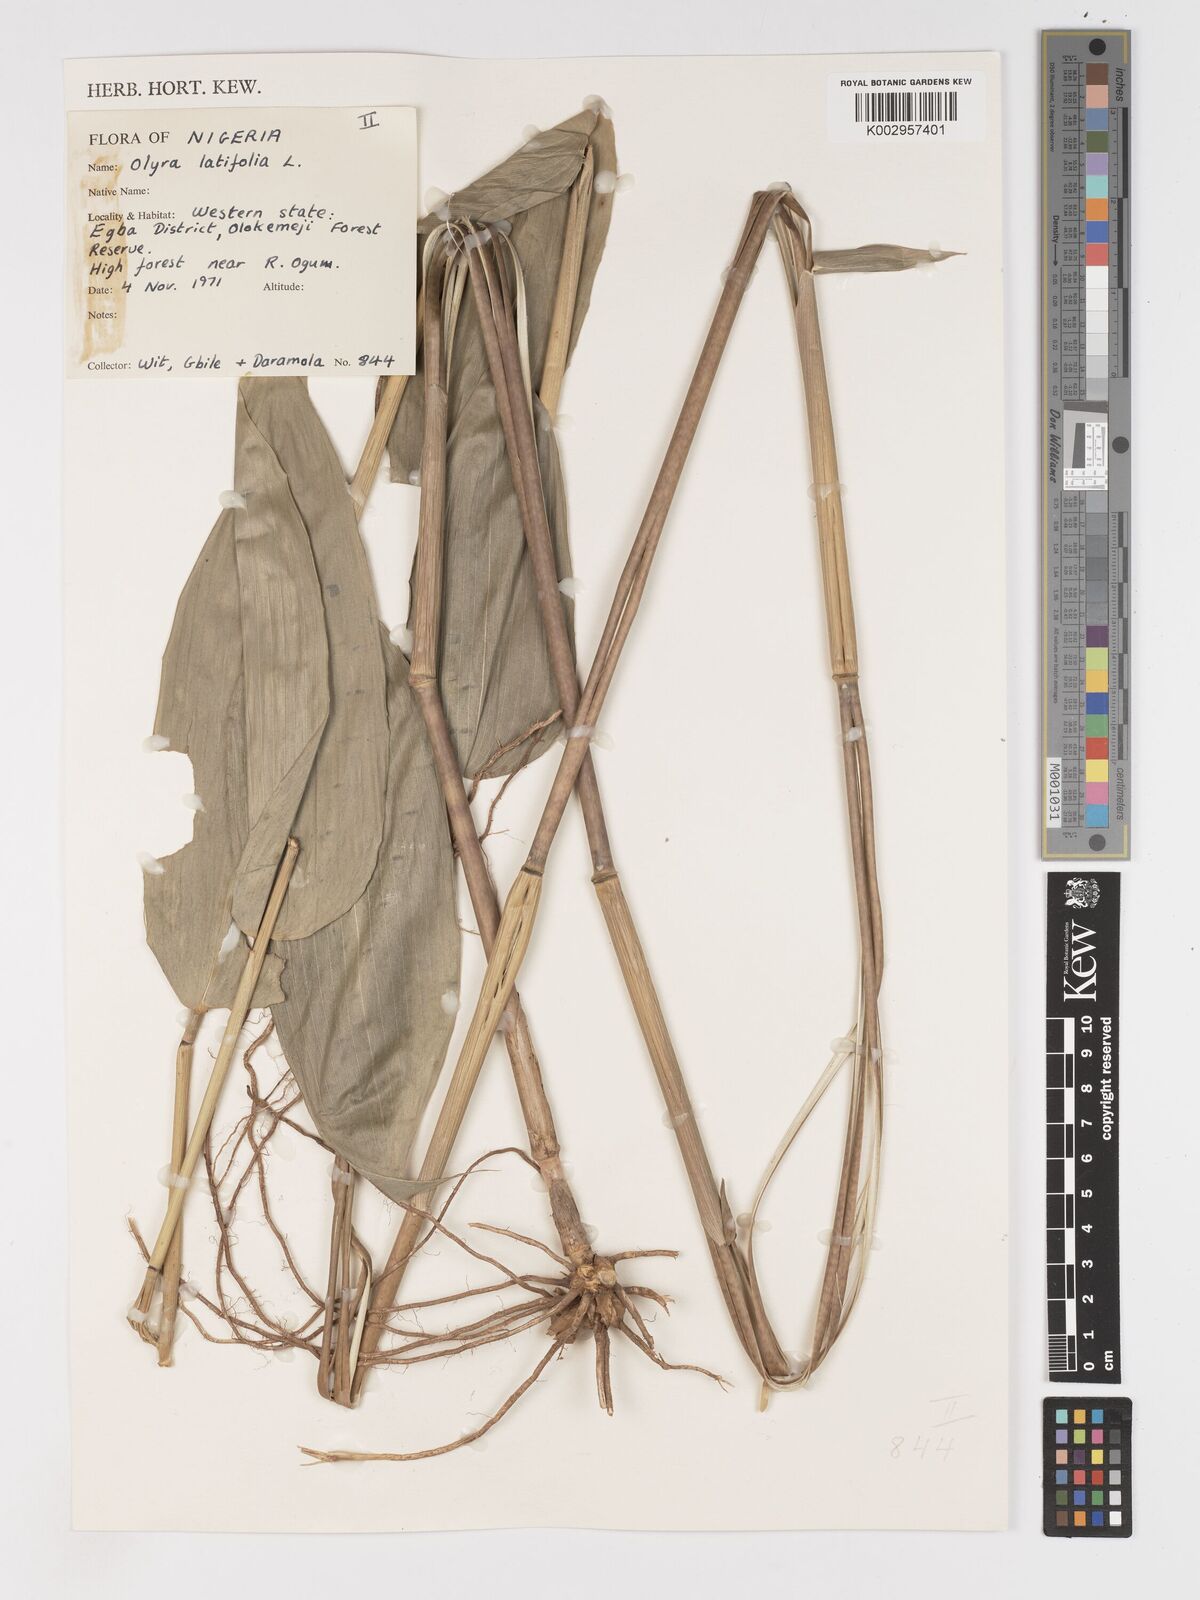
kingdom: Plantae
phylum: Tracheophyta
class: Liliopsida
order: Poales
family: Poaceae
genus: Olyra
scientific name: Olyra latifolia
